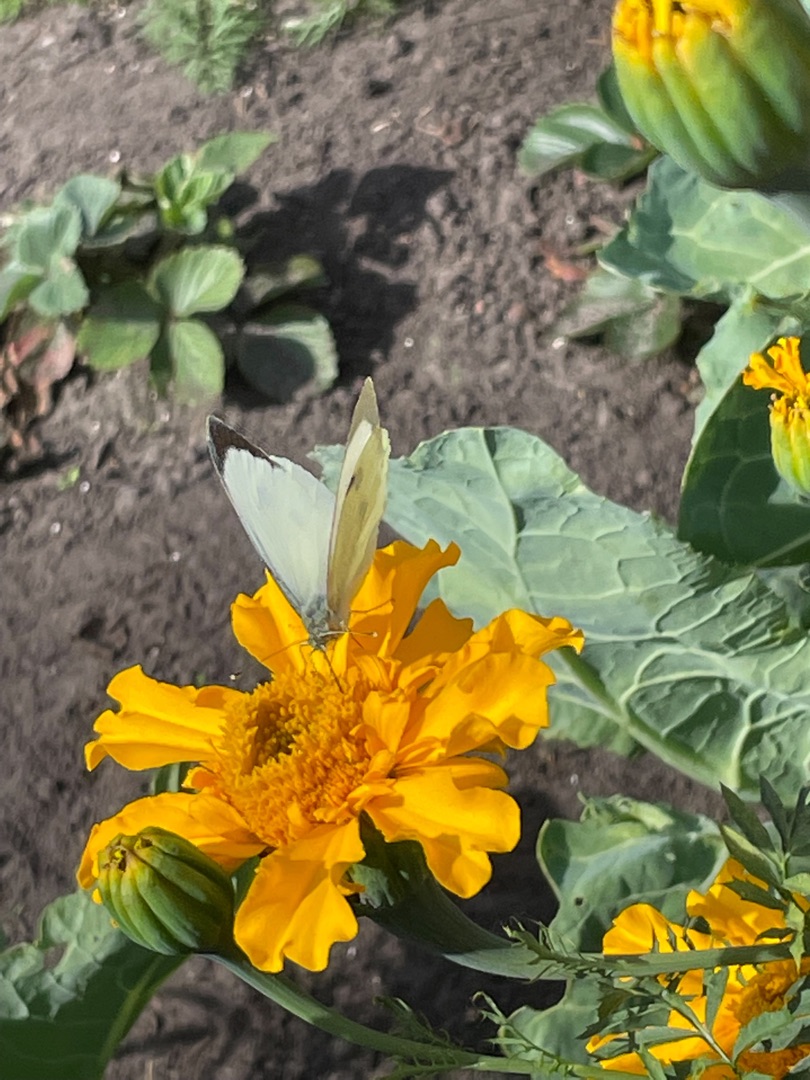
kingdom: Animalia
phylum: Arthropoda
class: Insecta
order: Lepidoptera
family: Pieridae
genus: Pieris
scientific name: Pieris brassicae
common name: Stor kålsommerfugl
